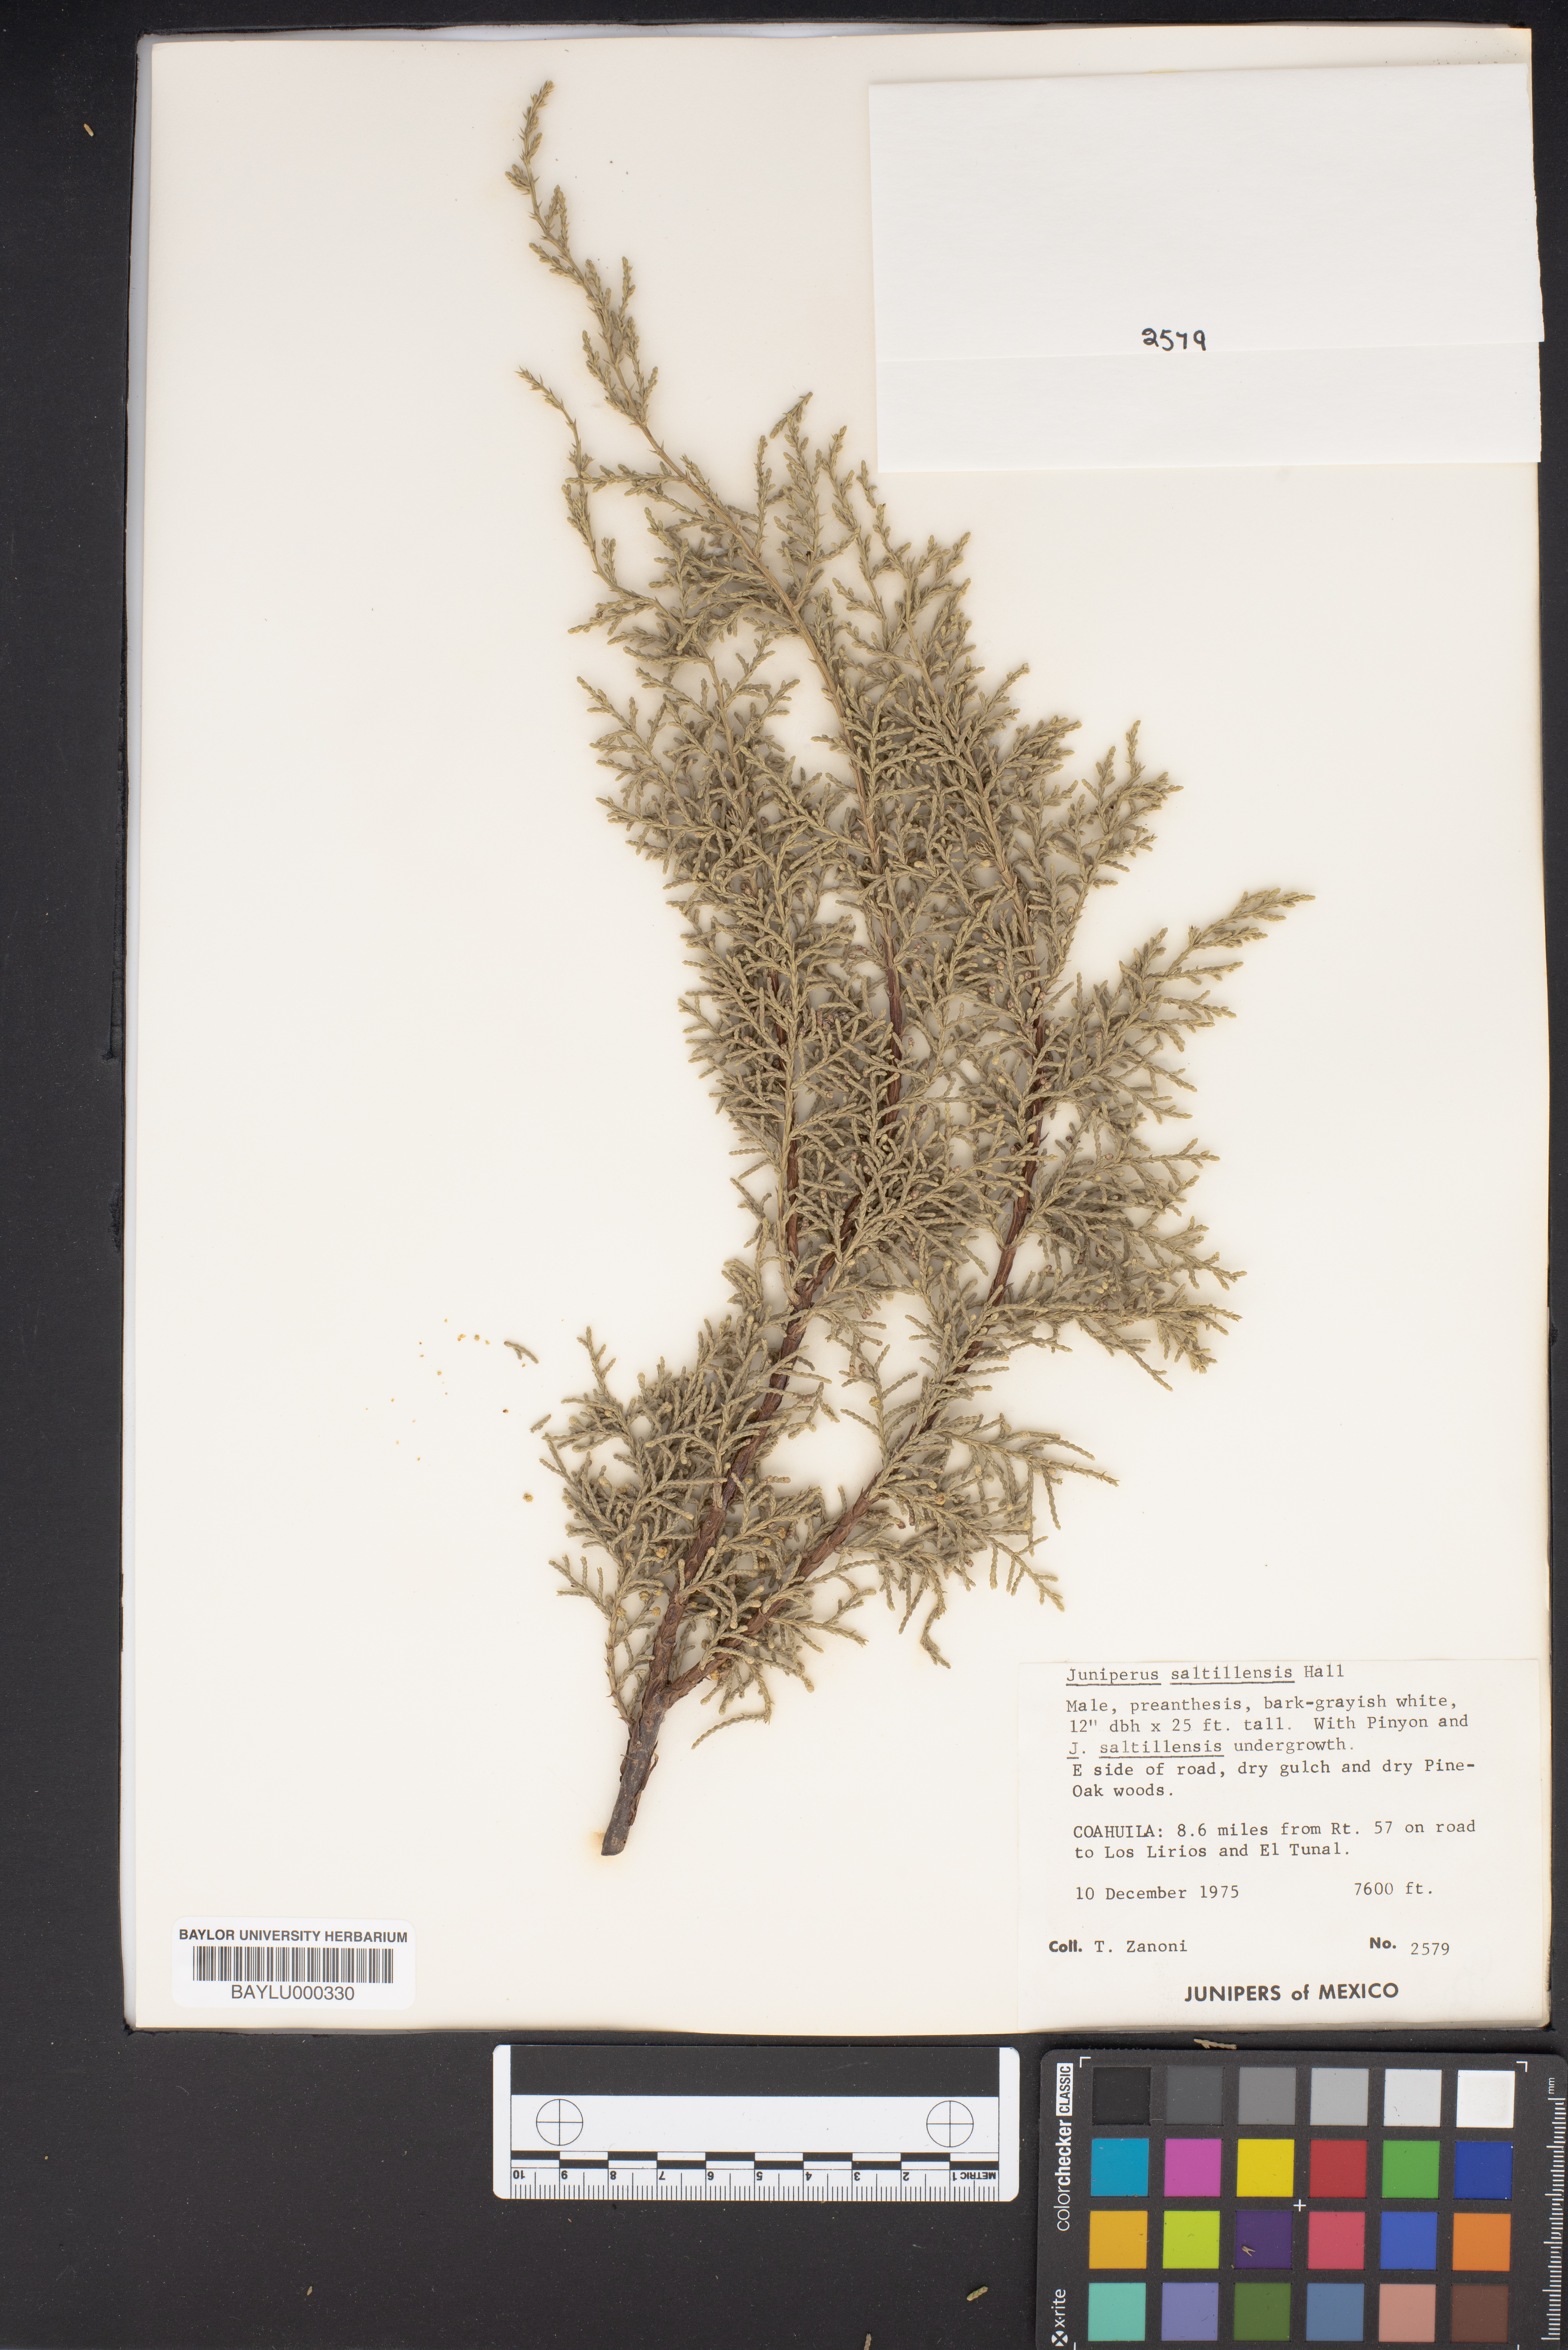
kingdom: Plantae
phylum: Tracheophyta
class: Pinopsida
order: Pinales
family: Cupressaceae
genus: Juniperus
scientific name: Juniperus saltillensis
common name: Saltillo juniper
